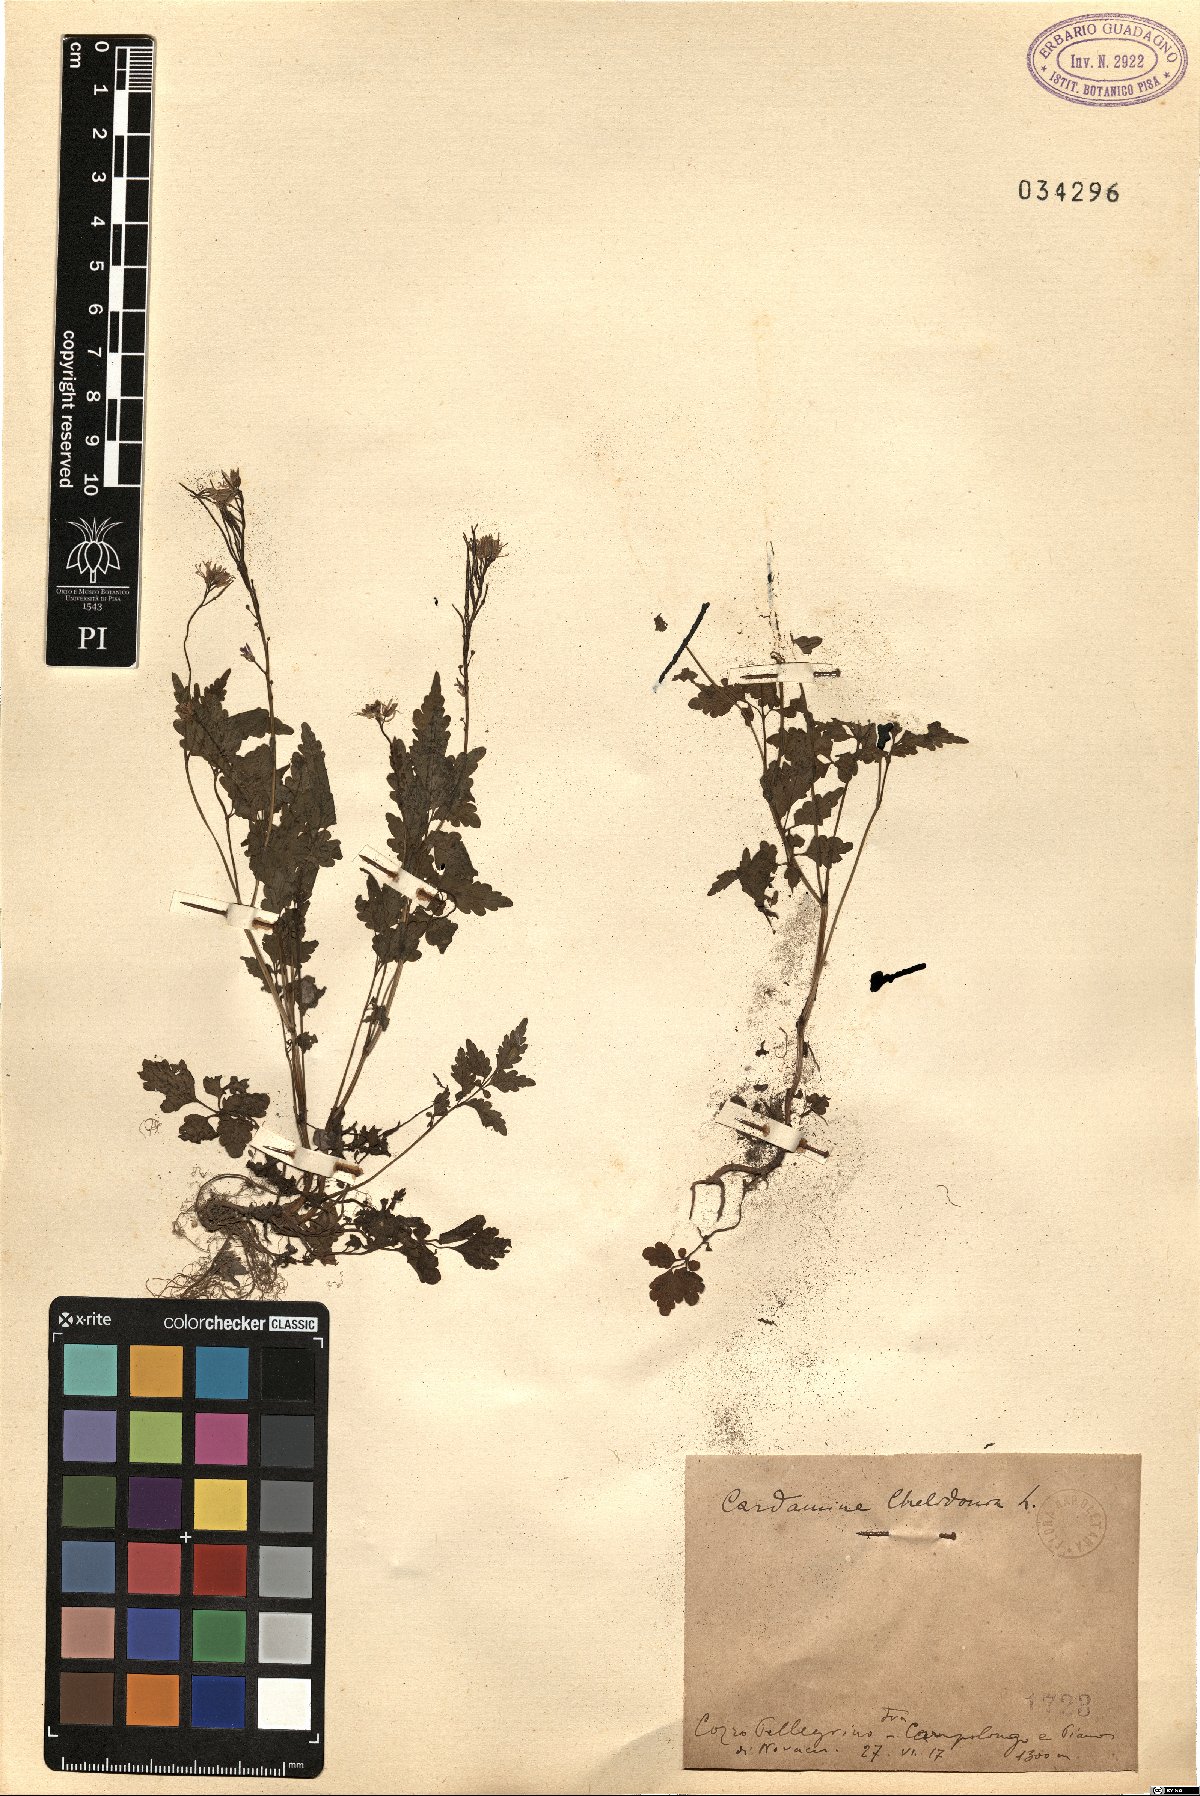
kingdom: Plantae
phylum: Tracheophyta
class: Magnoliopsida
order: Brassicales
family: Brassicaceae
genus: Cardamine
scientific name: Cardamine chelidonia
